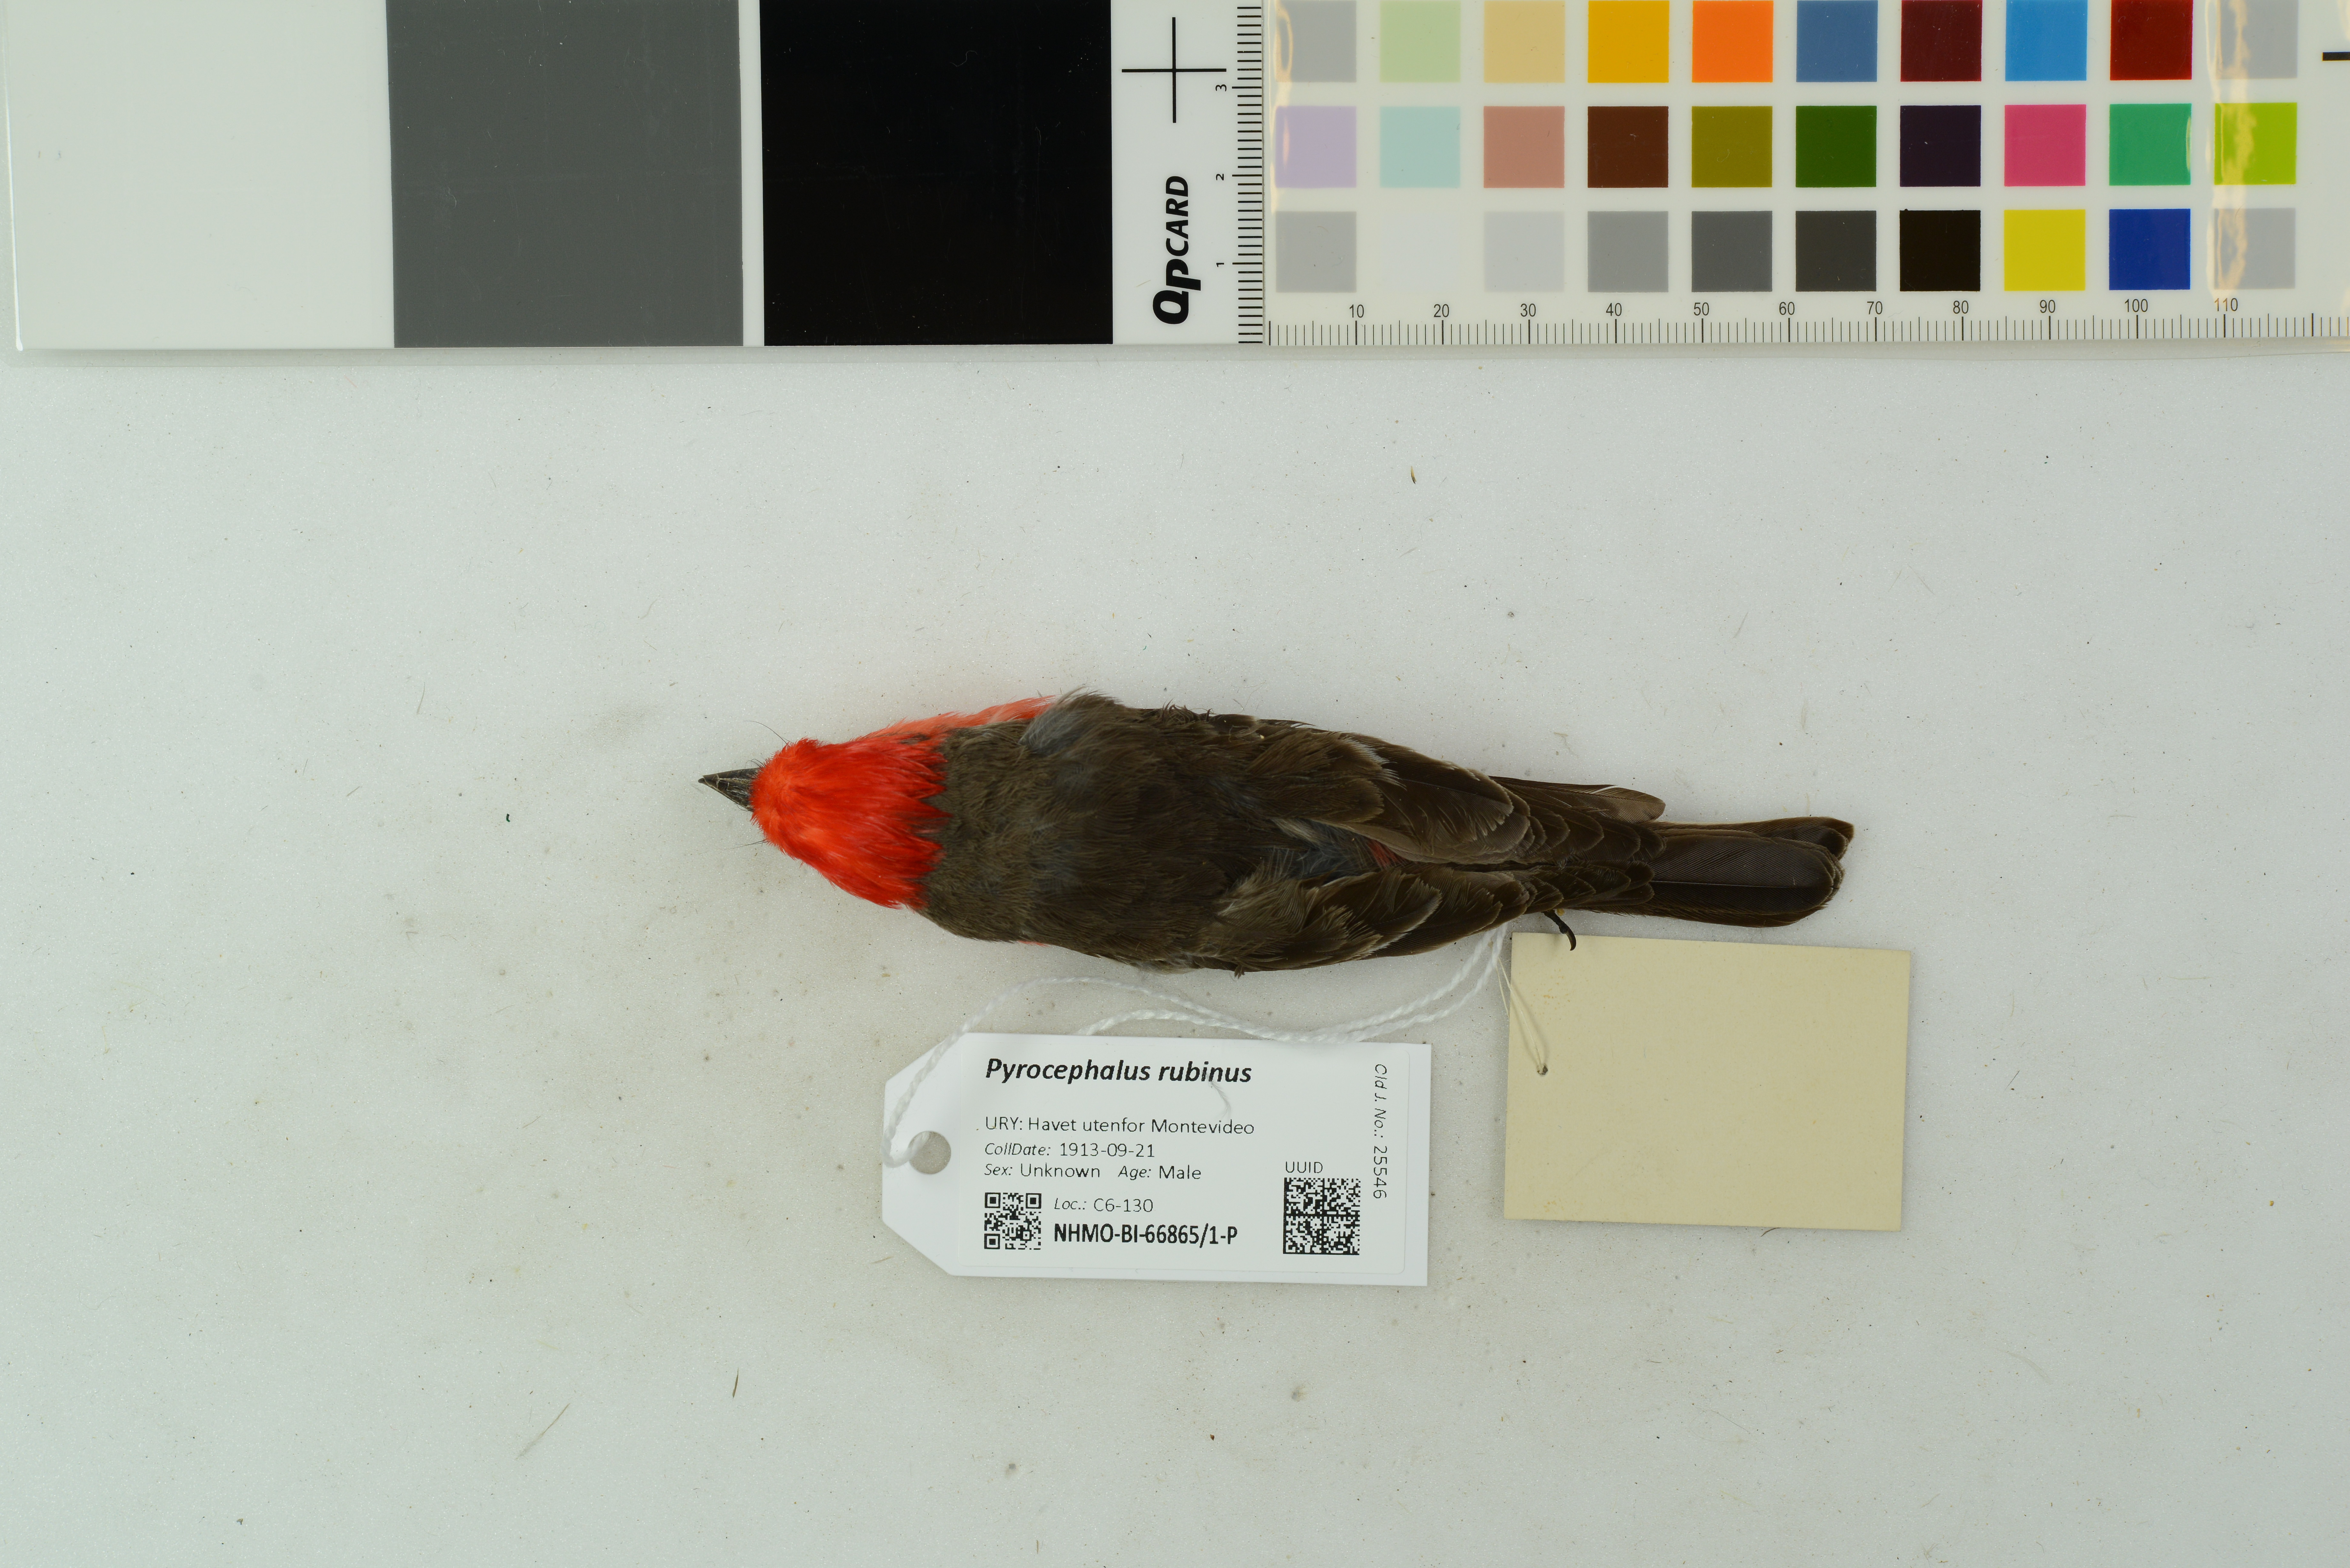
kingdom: Animalia
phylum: Chordata
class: Aves
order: Passeriformes
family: Tyrannidae
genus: Pyrocephalus
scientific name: Pyrocephalus rubinus
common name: Vermilion flycatcher
